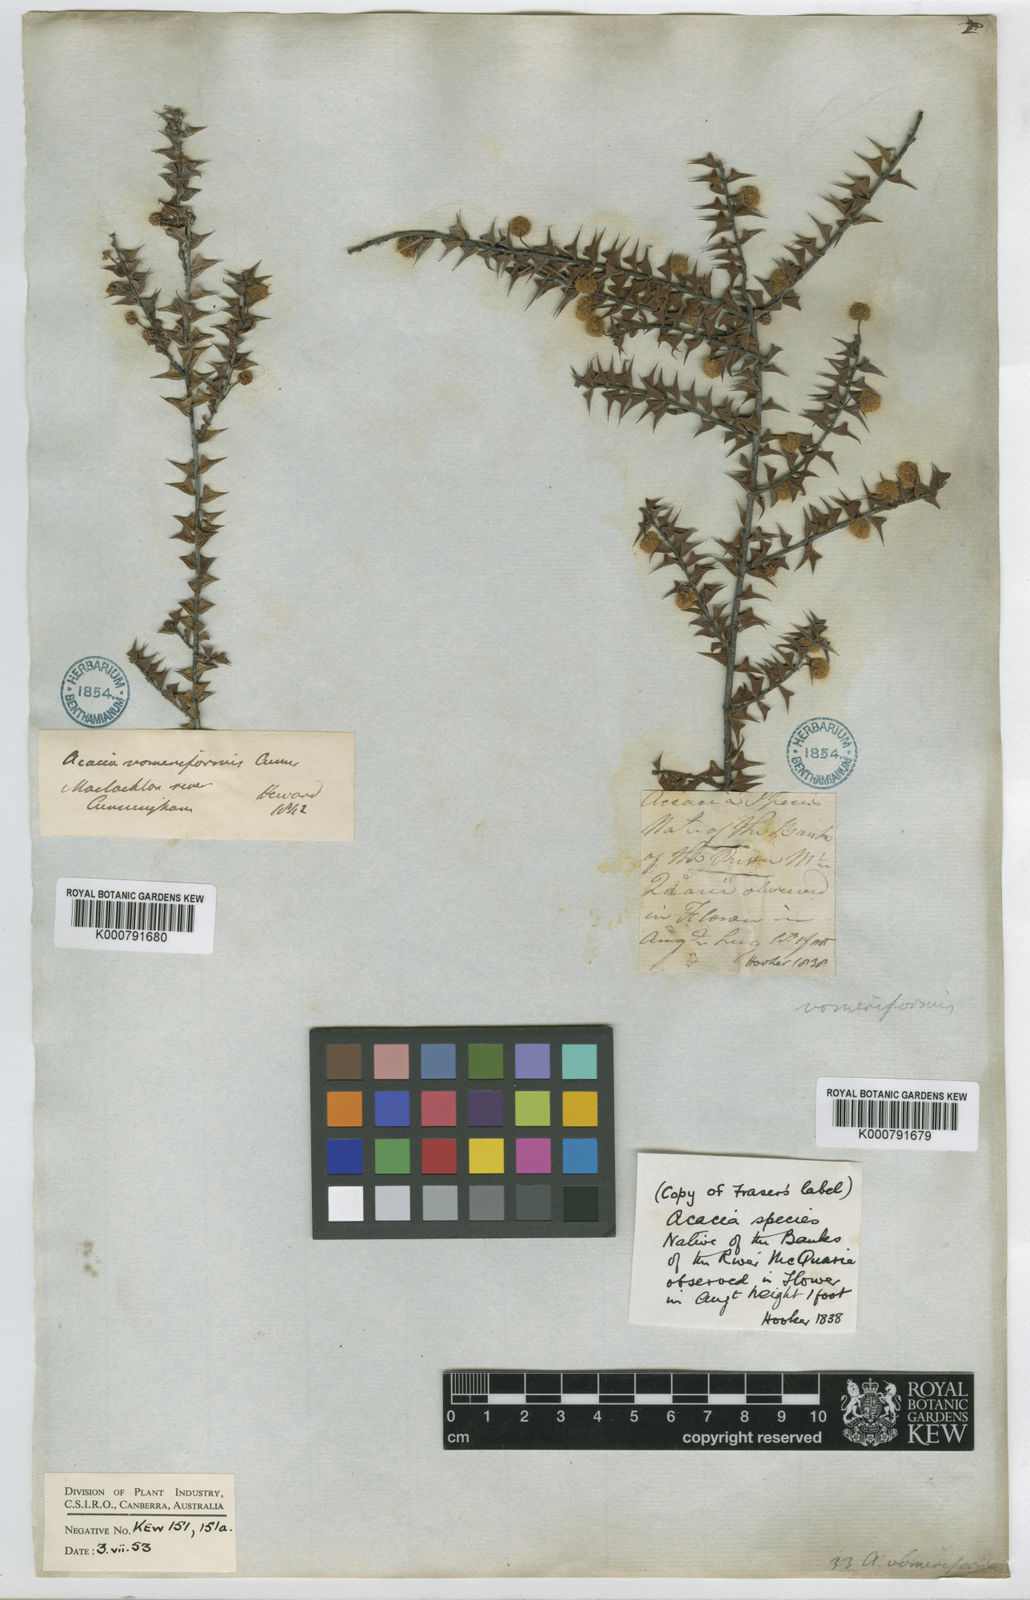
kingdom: Plantae
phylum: Tracheophyta
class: Magnoliopsida
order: Fabales
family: Fabaceae
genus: Acacia
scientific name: Acacia gunnii
